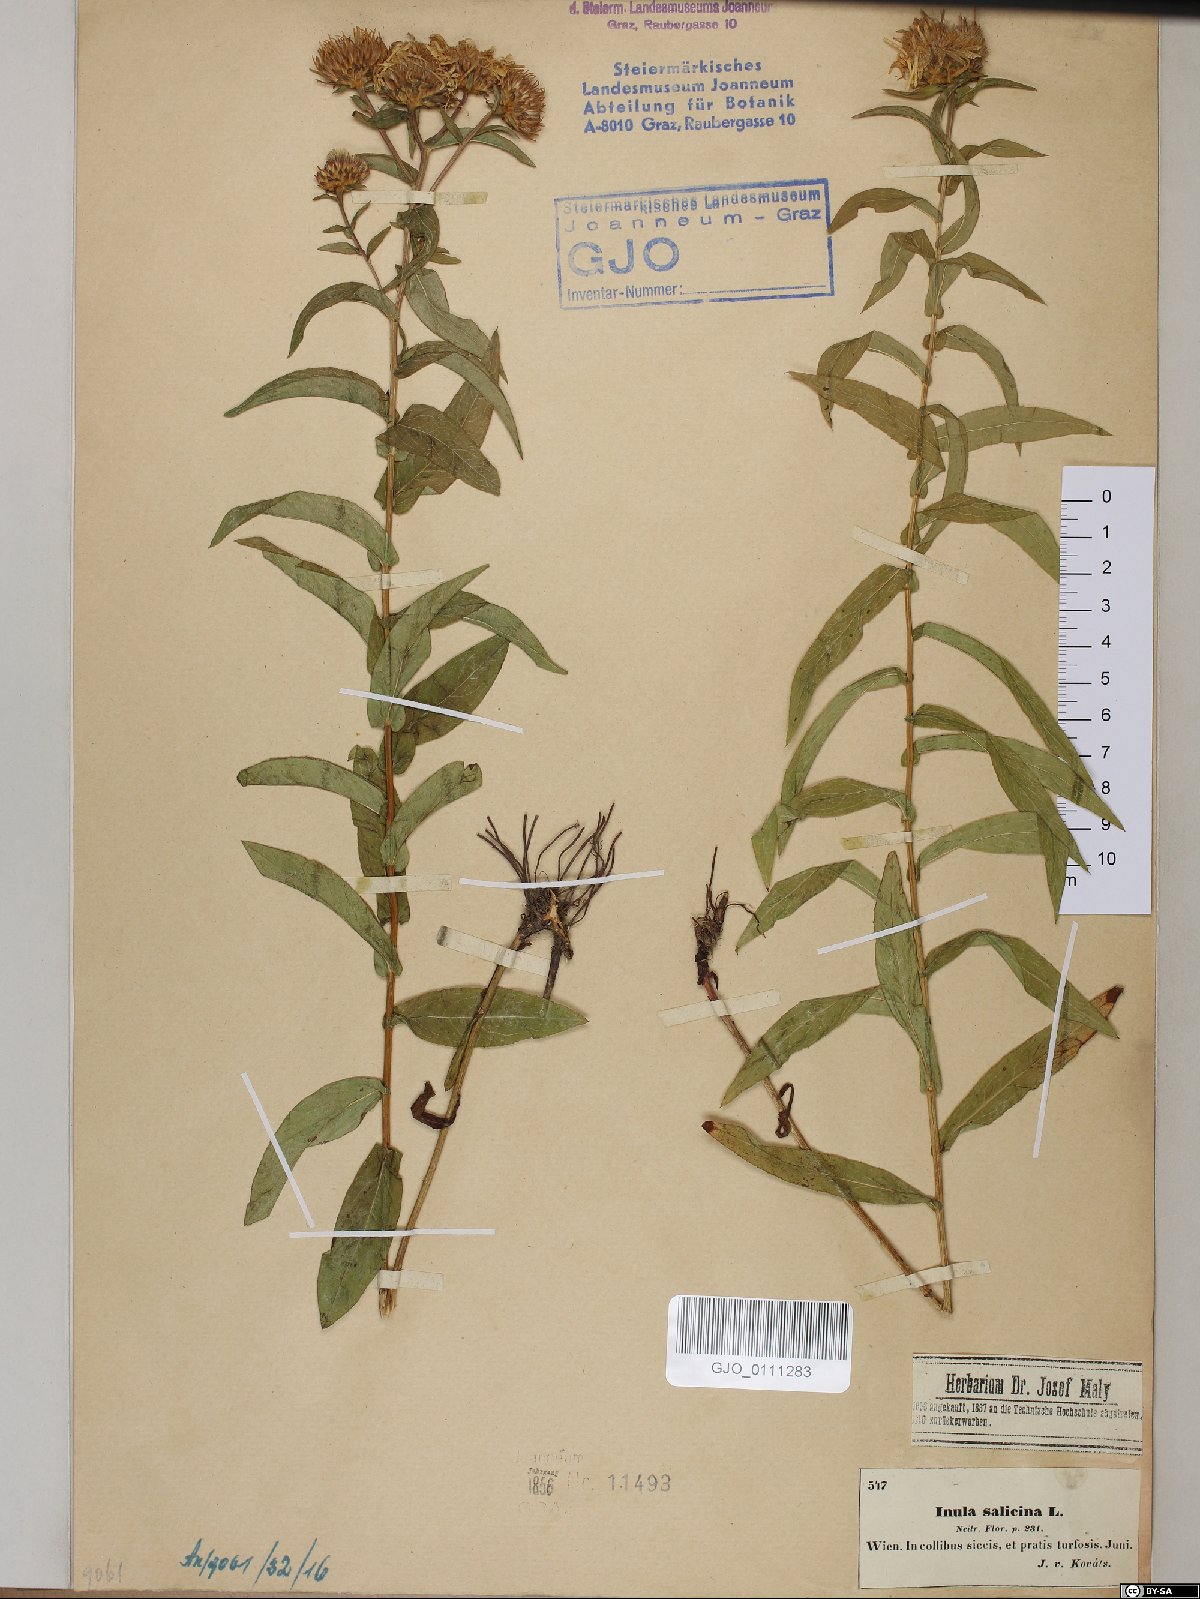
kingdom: Plantae
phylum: Tracheophyta
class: Magnoliopsida
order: Asterales
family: Asteraceae
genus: Pentanema
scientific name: Pentanema salicinum
